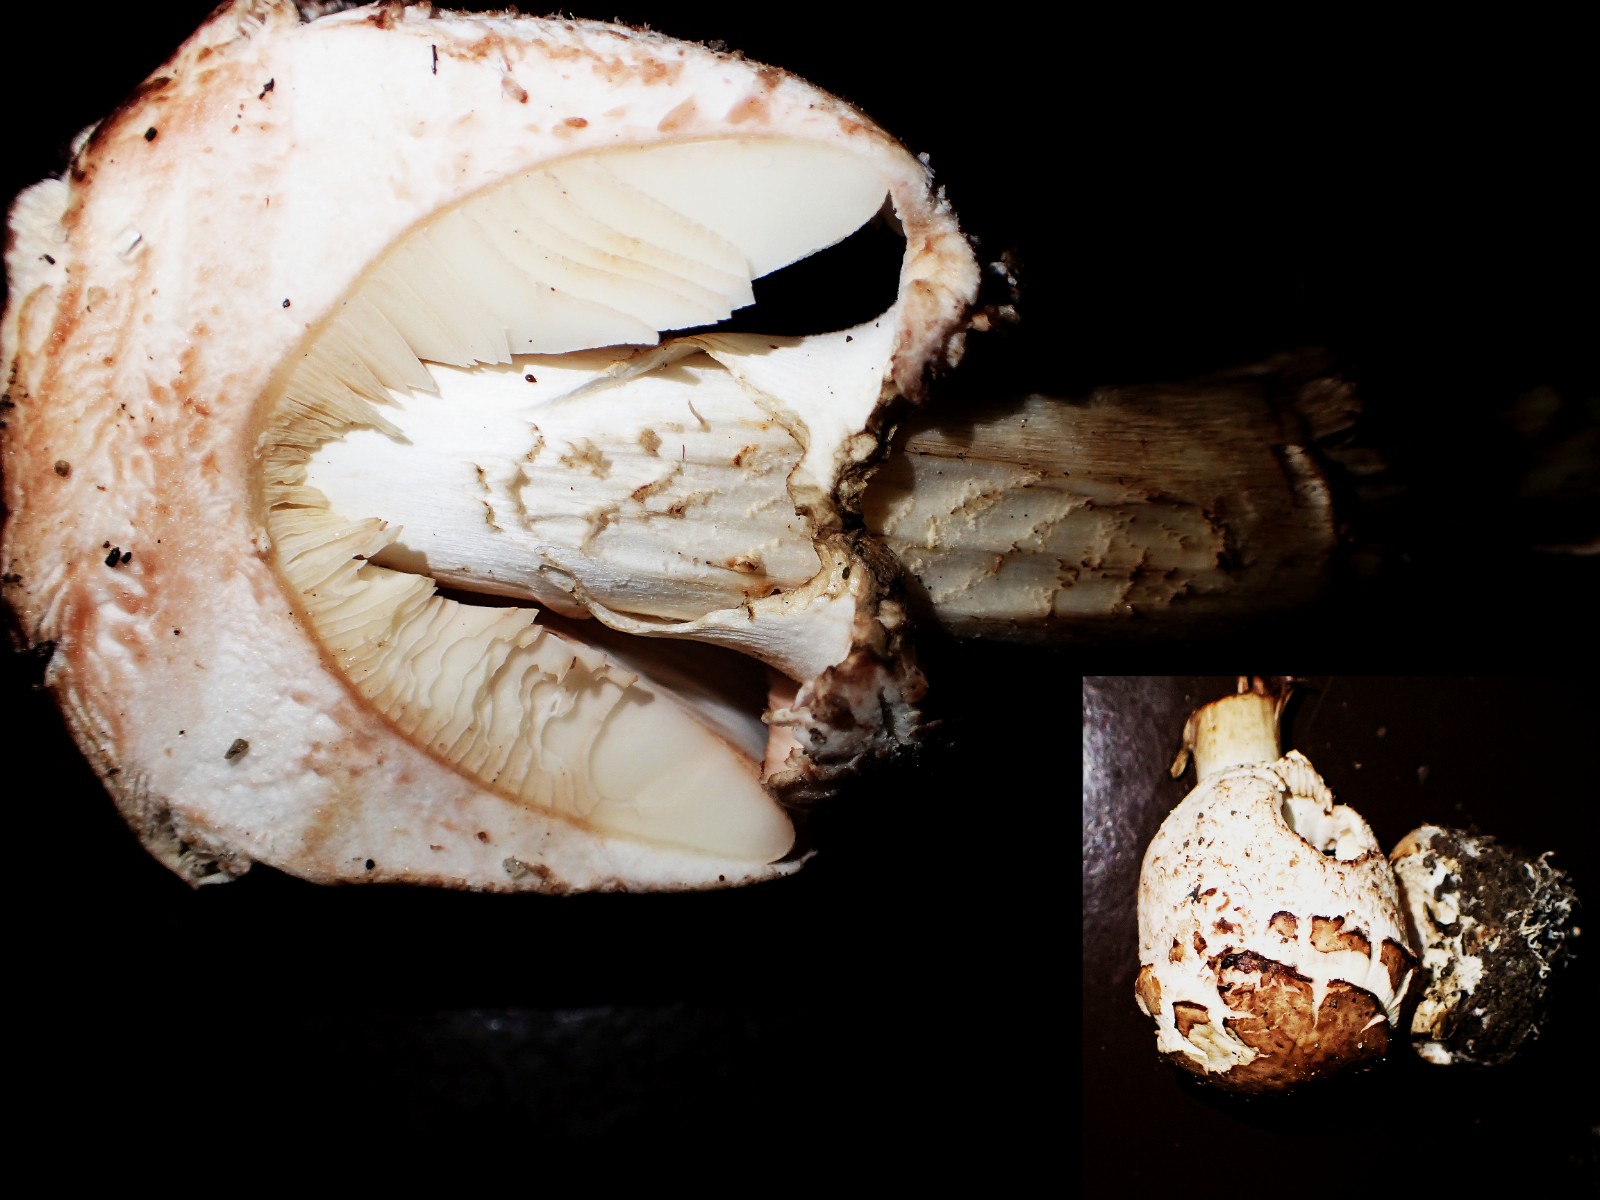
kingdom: Fungi
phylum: Basidiomycota
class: Agaricomycetes
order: Agaricales
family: Agaricaceae
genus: Chlorophyllum
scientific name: Chlorophyllum brunneum
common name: giftig rabarberhat
